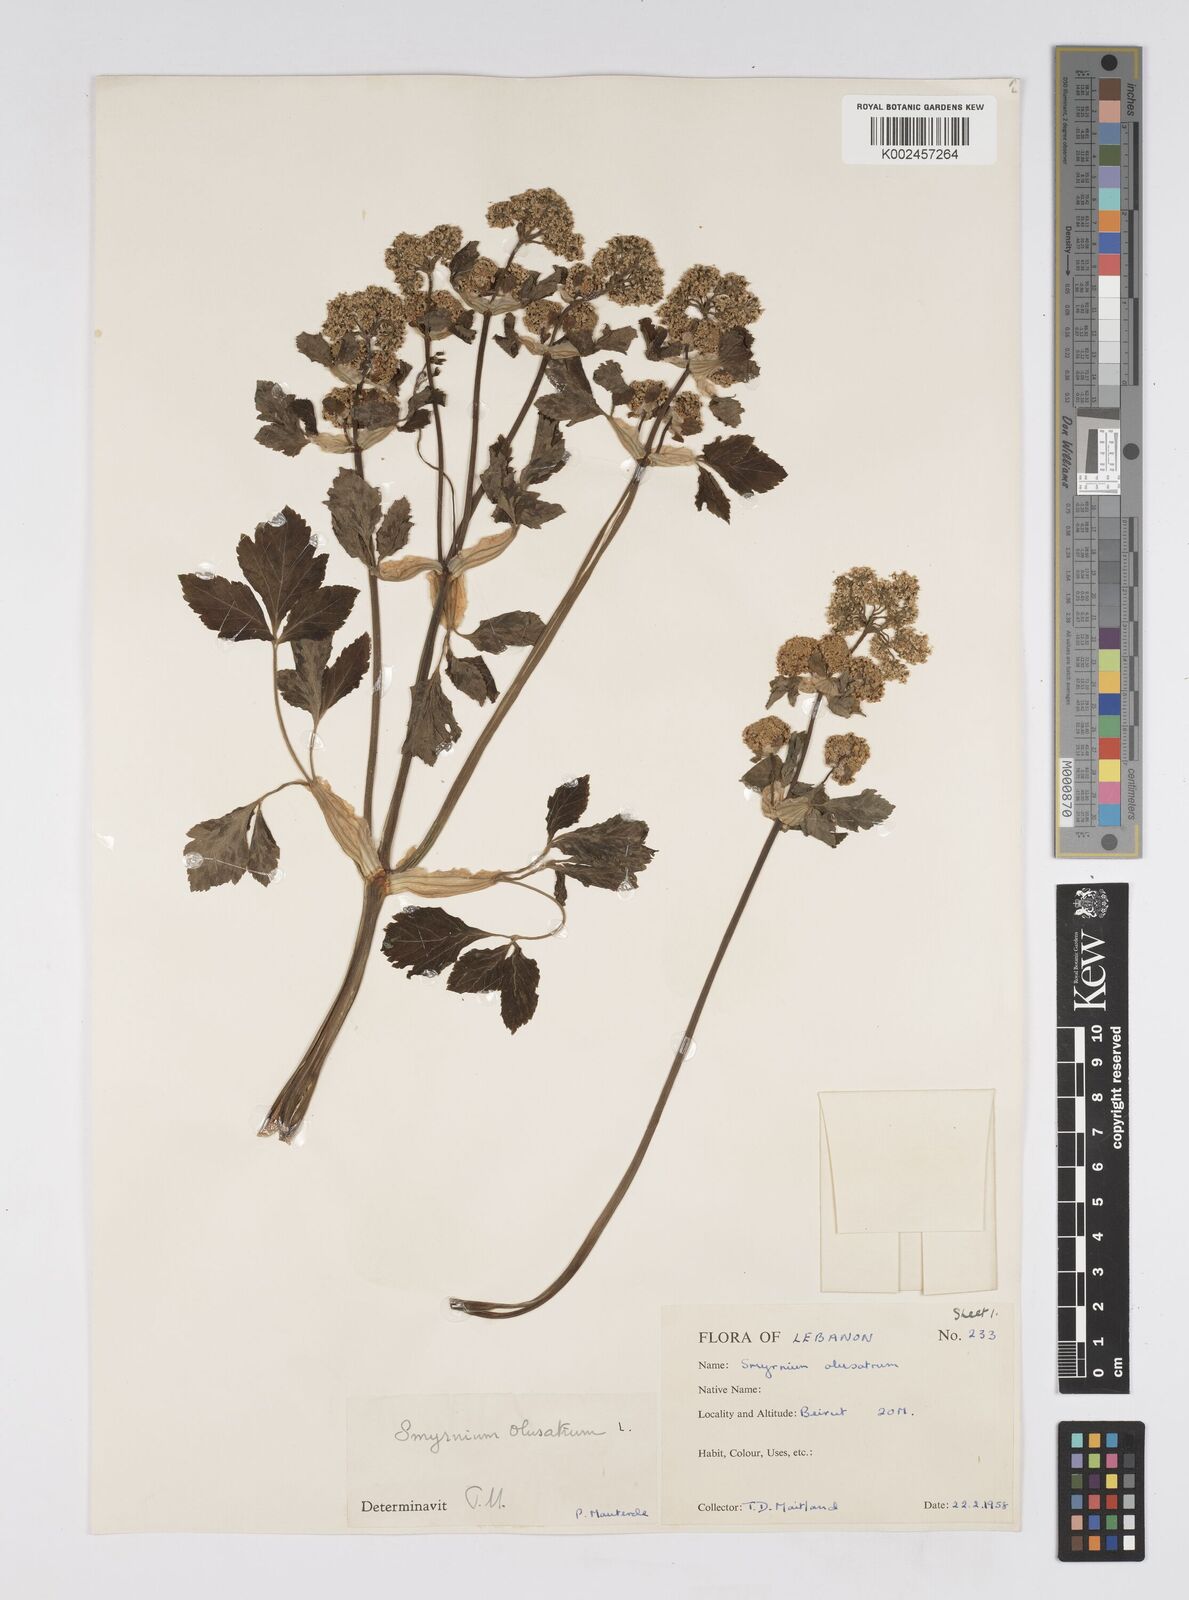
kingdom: Plantae
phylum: Tracheophyta
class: Magnoliopsida
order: Apiales
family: Apiaceae
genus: Smyrnium
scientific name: Smyrnium olusatrum
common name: Alexanders
